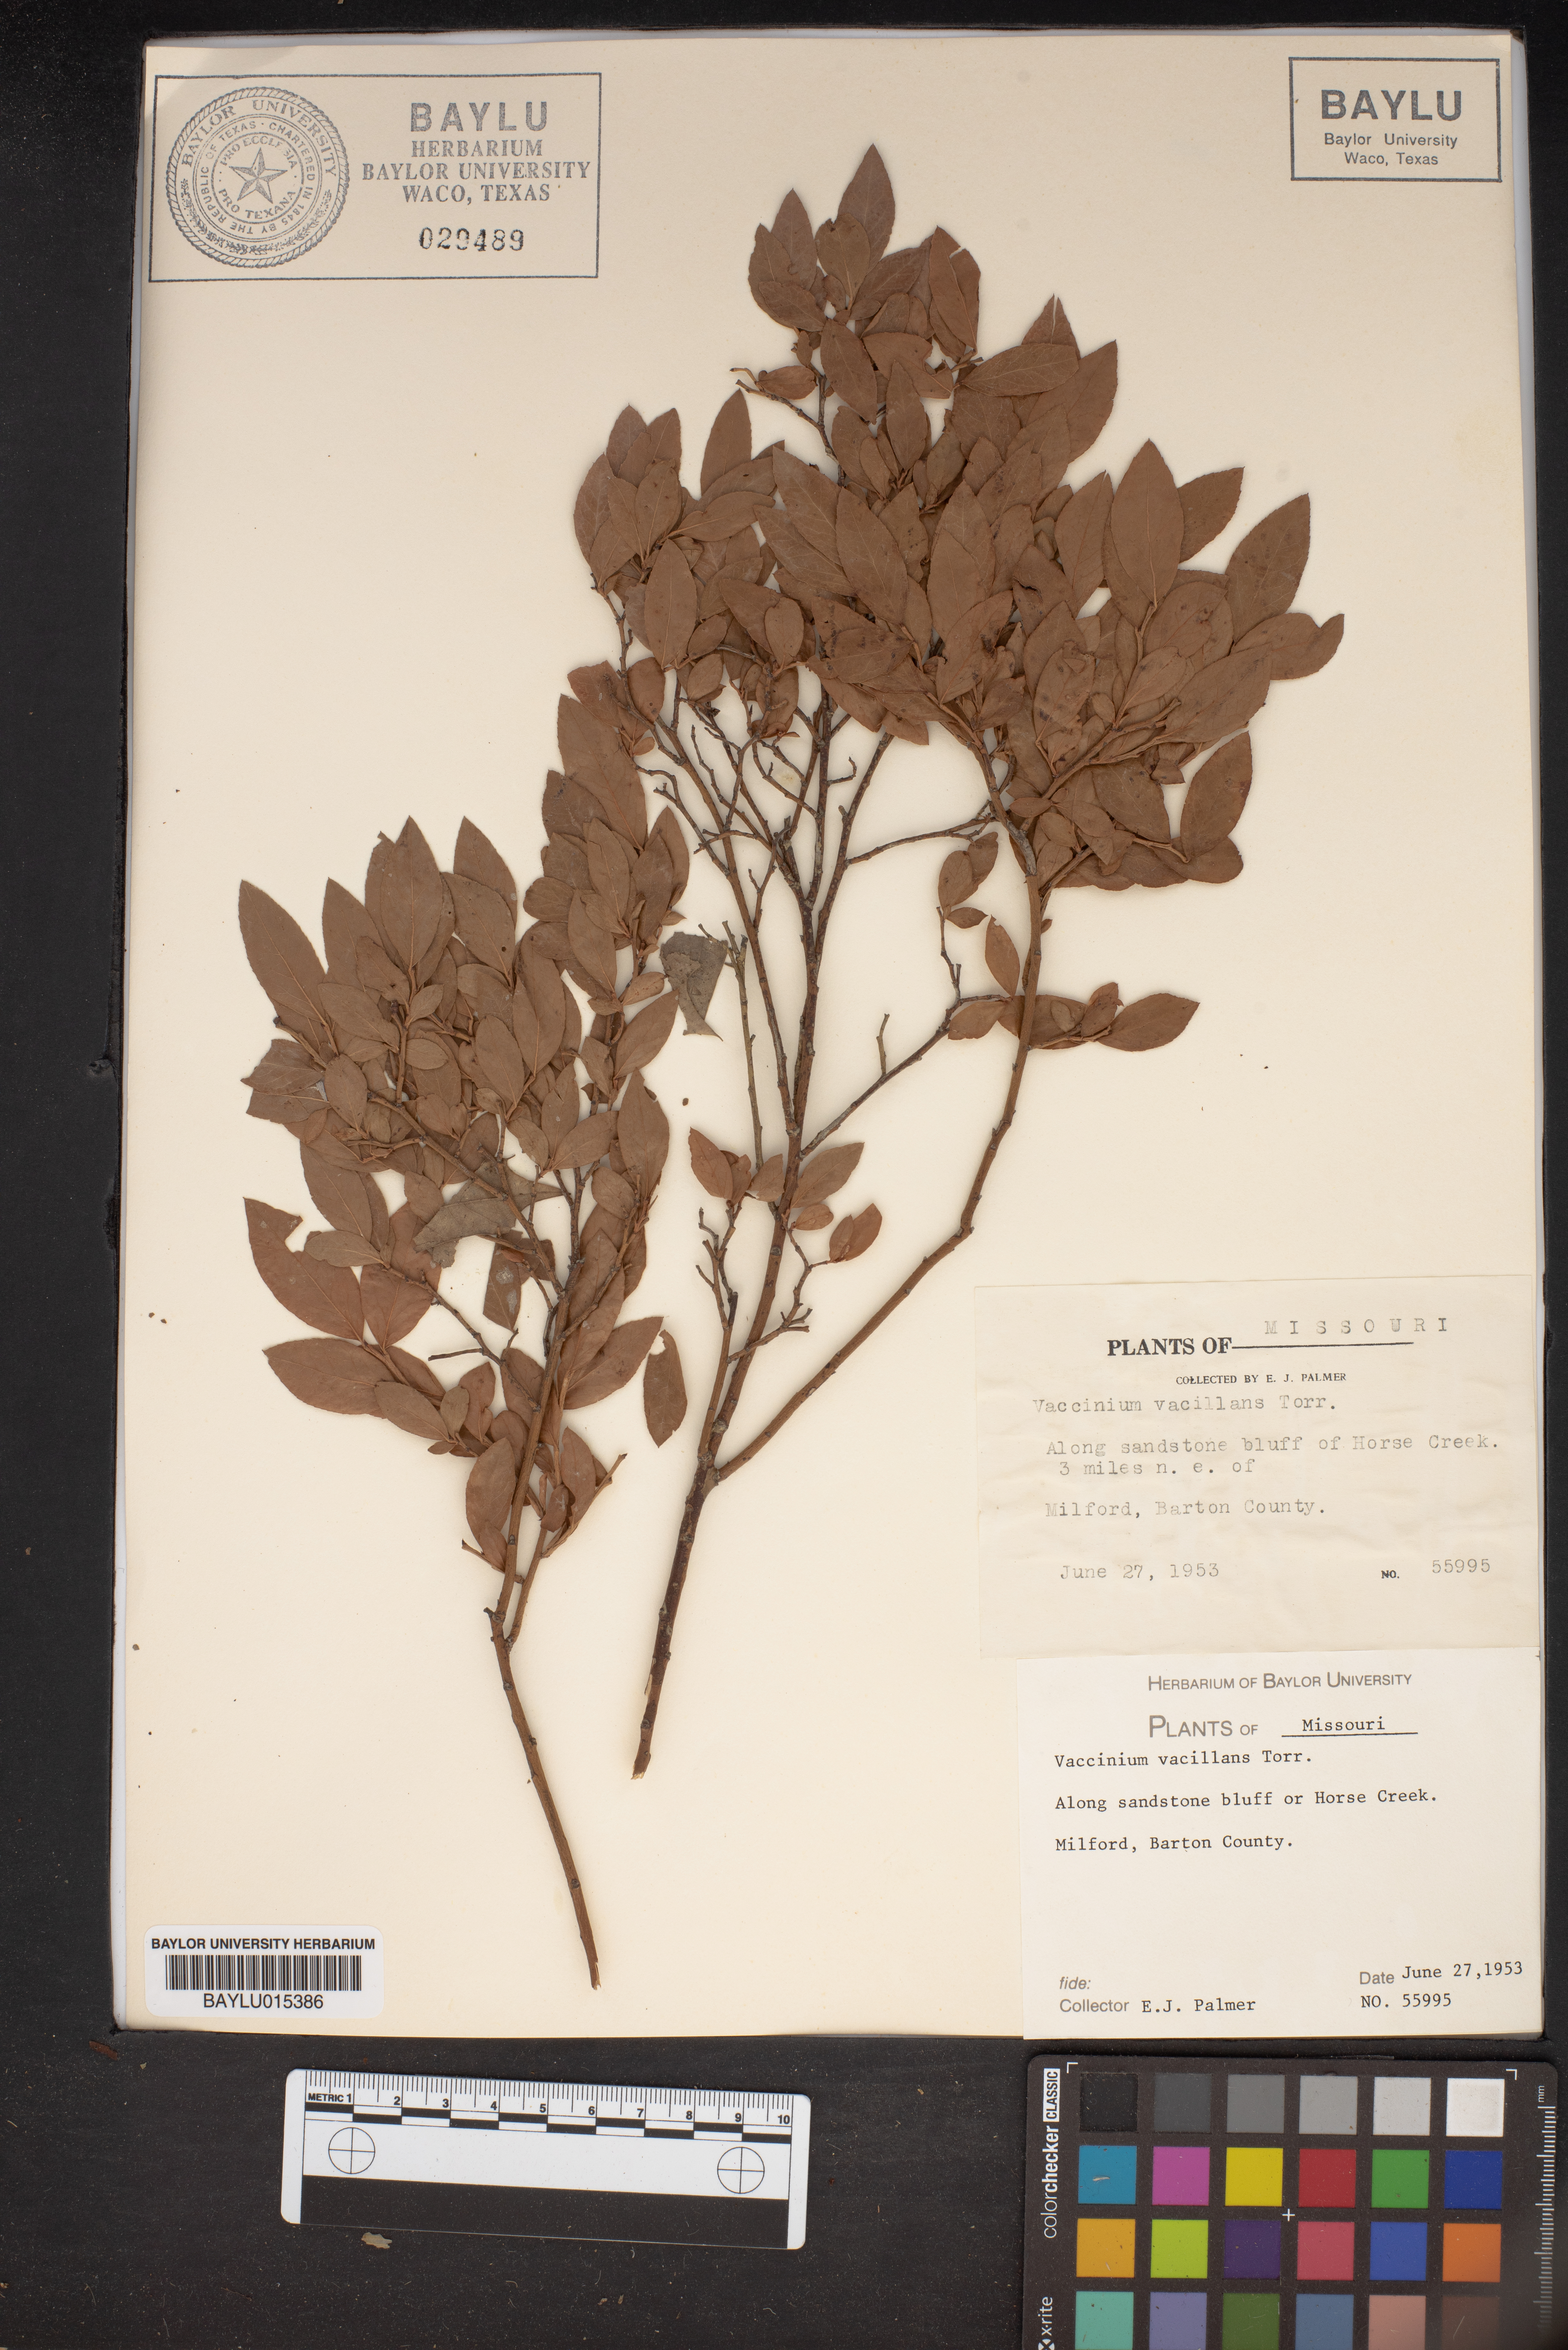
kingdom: Plantae
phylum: Tracheophyta
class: Magnoliopsida
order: Ericales
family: Ericaceae
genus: Vaccinium
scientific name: Vaccinium pallidum
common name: Blue ridge blueberry
